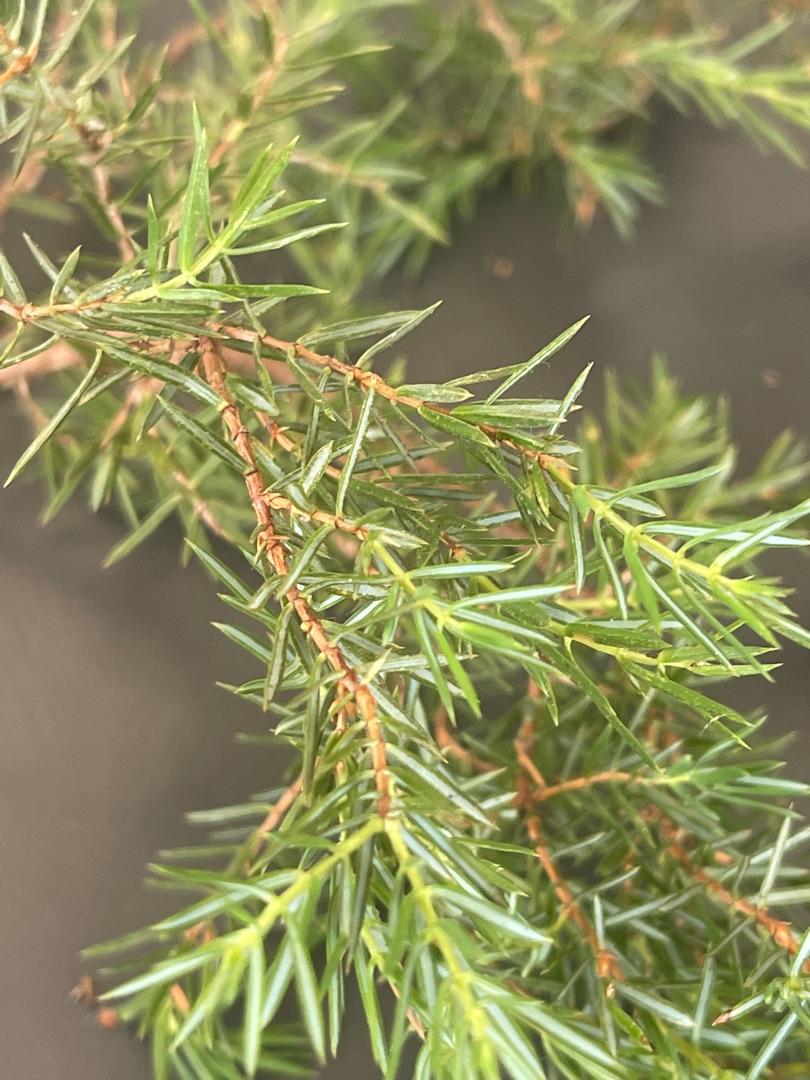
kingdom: Plantae
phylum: Tracheophyta
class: Pinopsida
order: Pinales
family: Cupressaceae
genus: Juniperus
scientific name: Juniperus communis
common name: Almindelig ene
